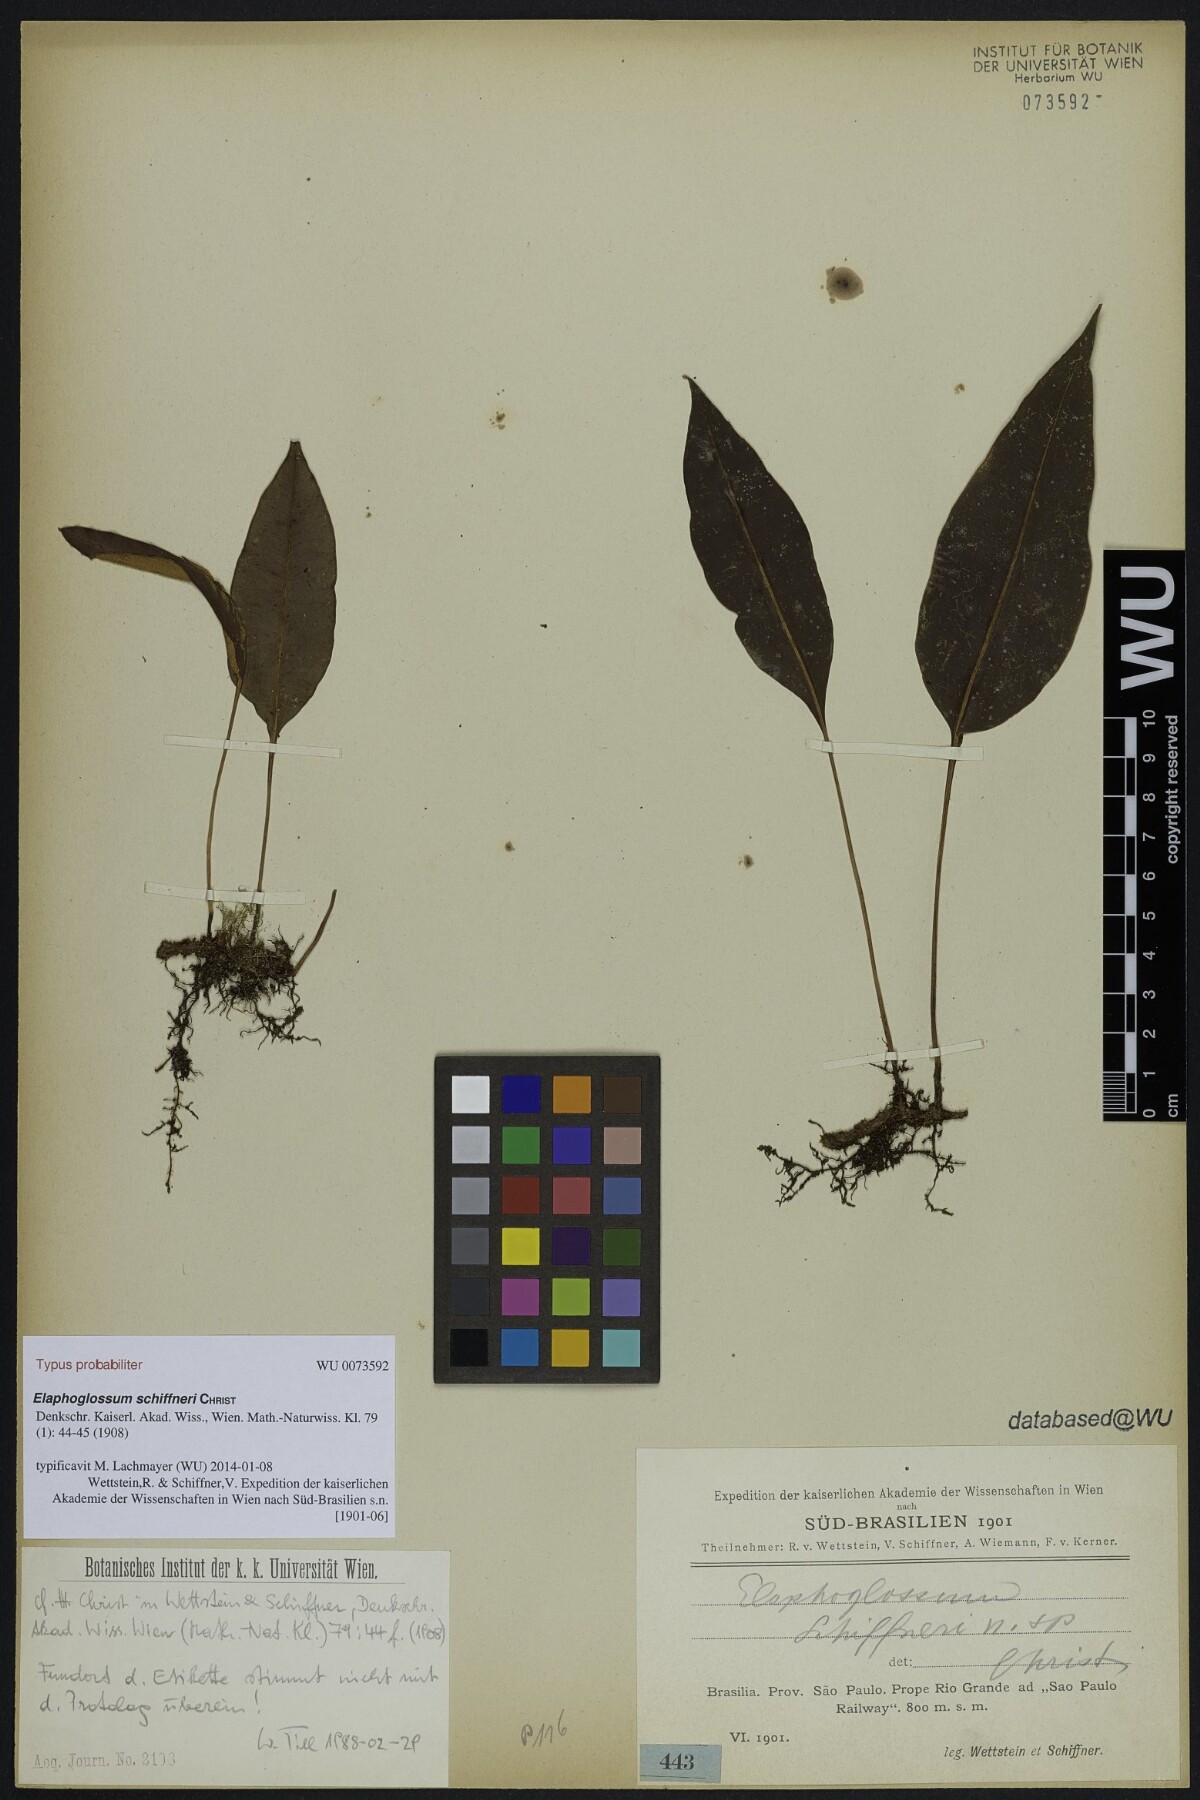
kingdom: Plantae
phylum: Tracheophyta
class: Polypodiopsida
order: Polypodiales
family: Dryopteridaceae
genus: Elaphoglossum
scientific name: Elaphoglossum vagans
